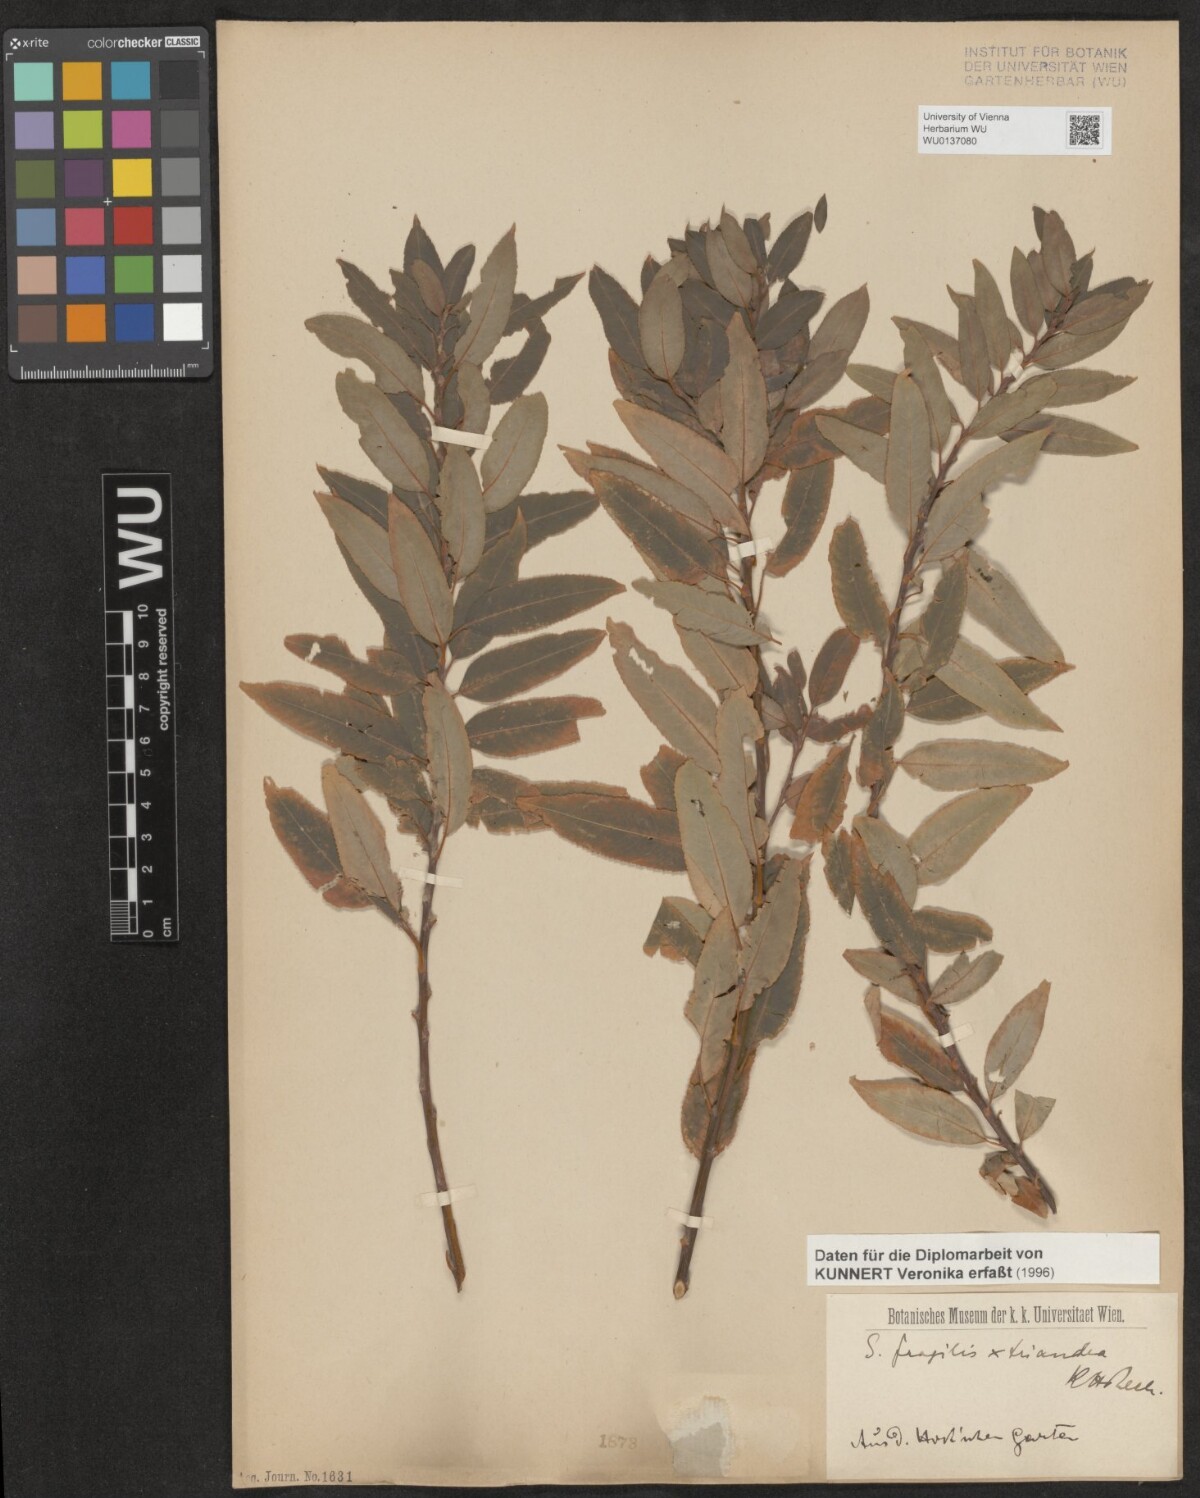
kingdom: Plantae
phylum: Tracheophyta
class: Magnoliopsida
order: Malpighiales
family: Salicaceae
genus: Salix
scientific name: Salix fragilis
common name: Crack willow
